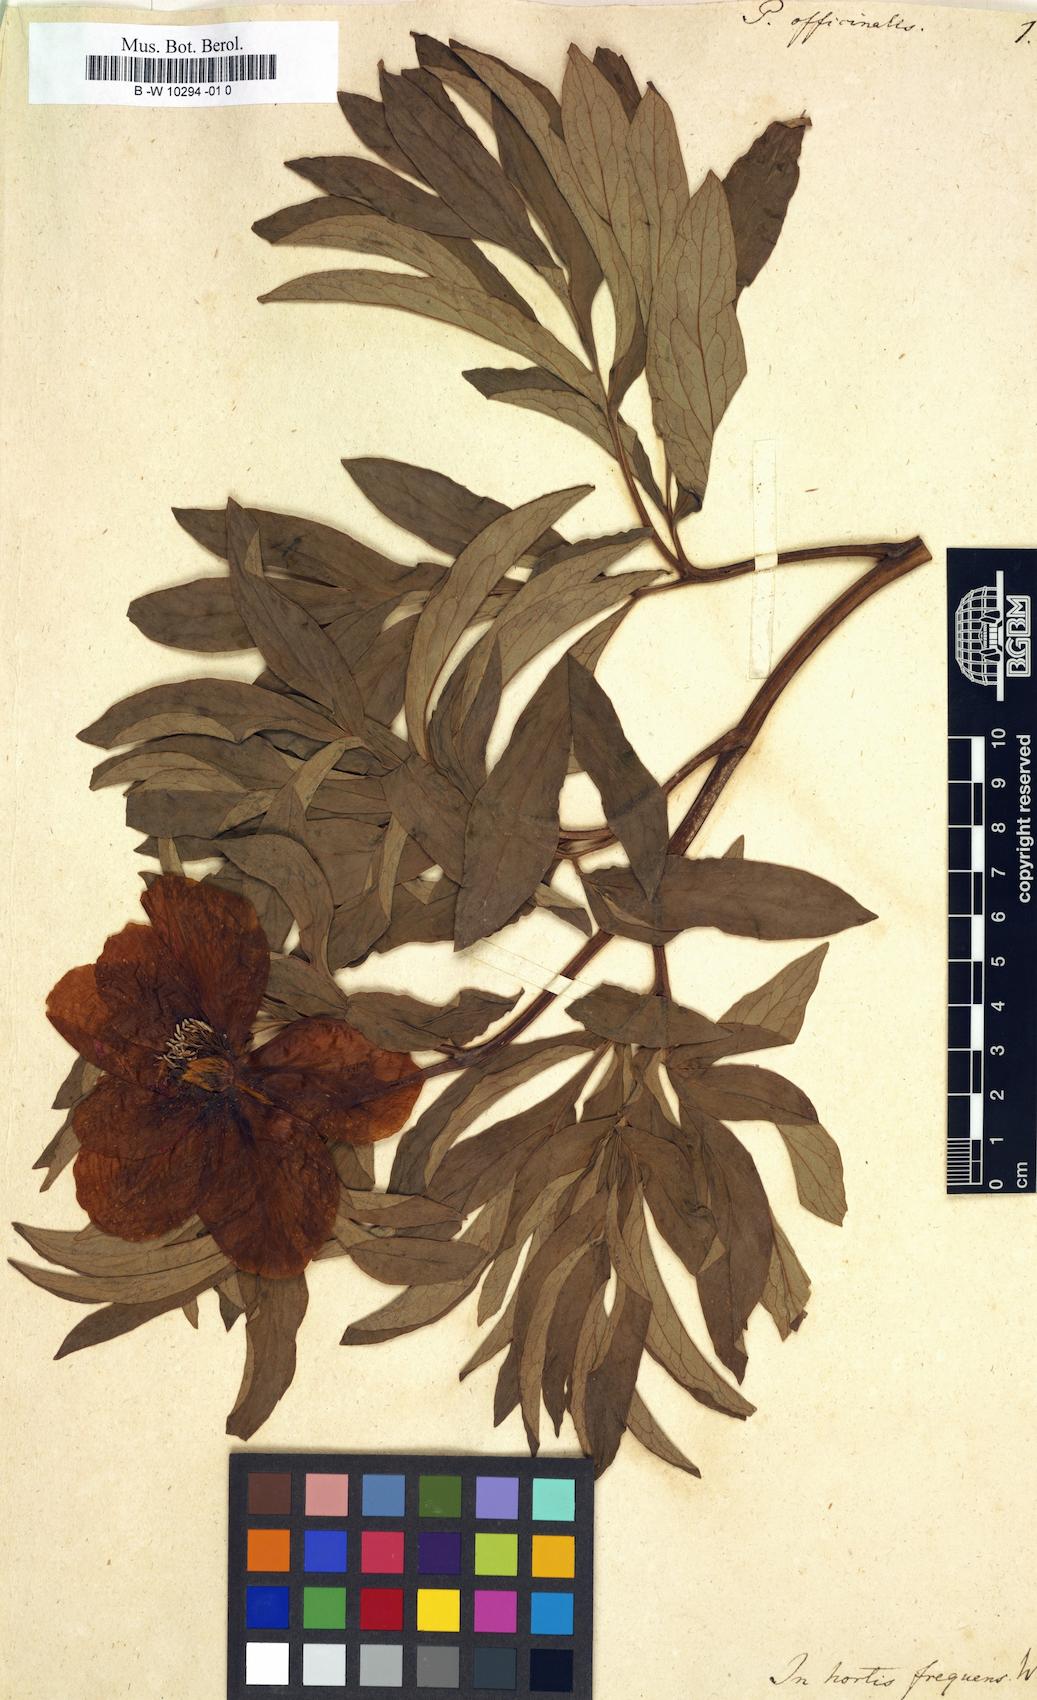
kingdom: Plantae
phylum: Tracheophyta
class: Magnoliopsida
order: Saxifragales
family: Paeoniaceae
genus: Paeonia
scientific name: Paeonia officinalis
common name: Common peony
